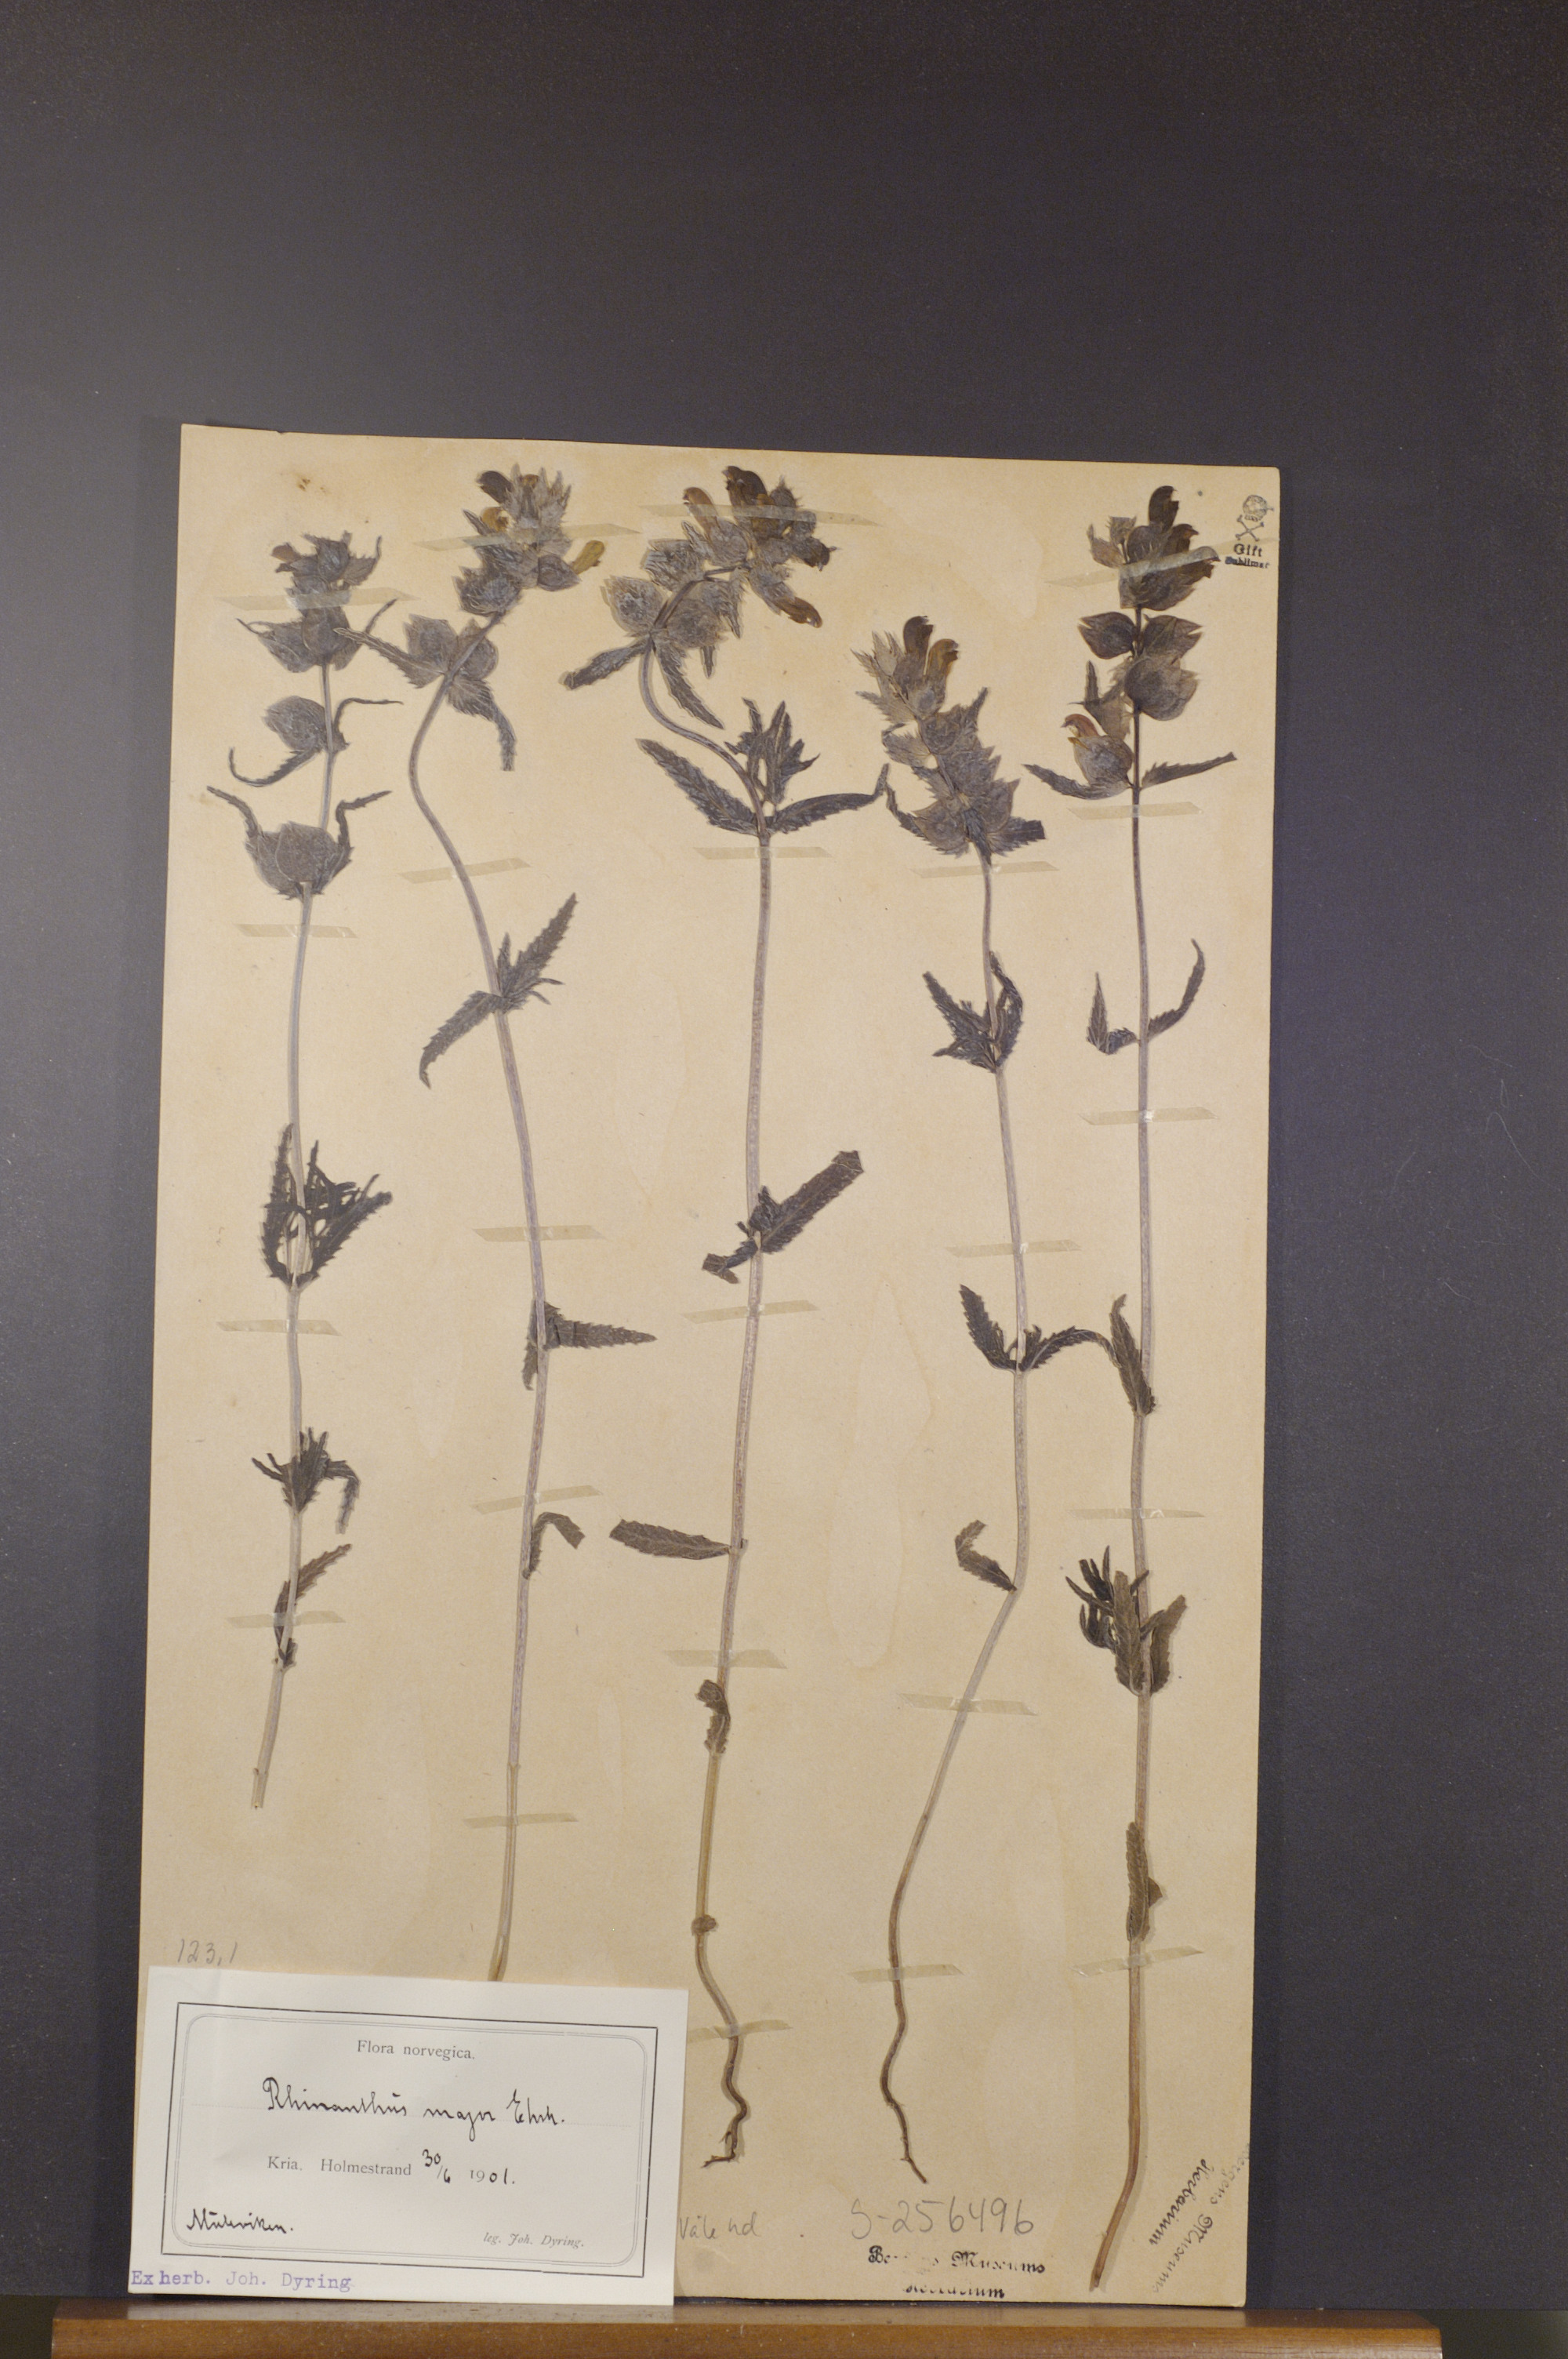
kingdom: Plantae
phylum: Tracheophyta
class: Magnoliopsida
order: Lamiales
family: Orobanchaceae
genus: Rhinanthus
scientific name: Rhinanthus serotinus
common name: Late-flowering yellow rattle
